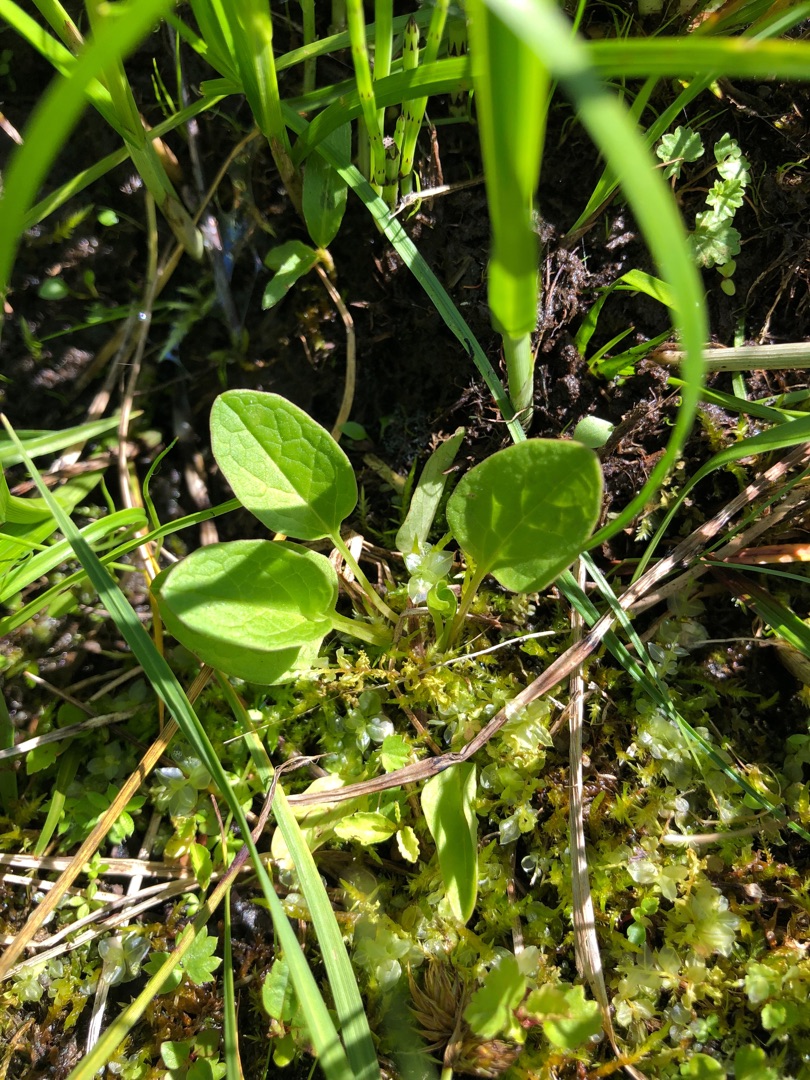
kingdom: Plantae
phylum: Tracheophyta
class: Magnoliopsida
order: Dipsacales
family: Caprifoliaceae
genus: Valeriana
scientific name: Valeriana dioica
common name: Tvebo baldrian
